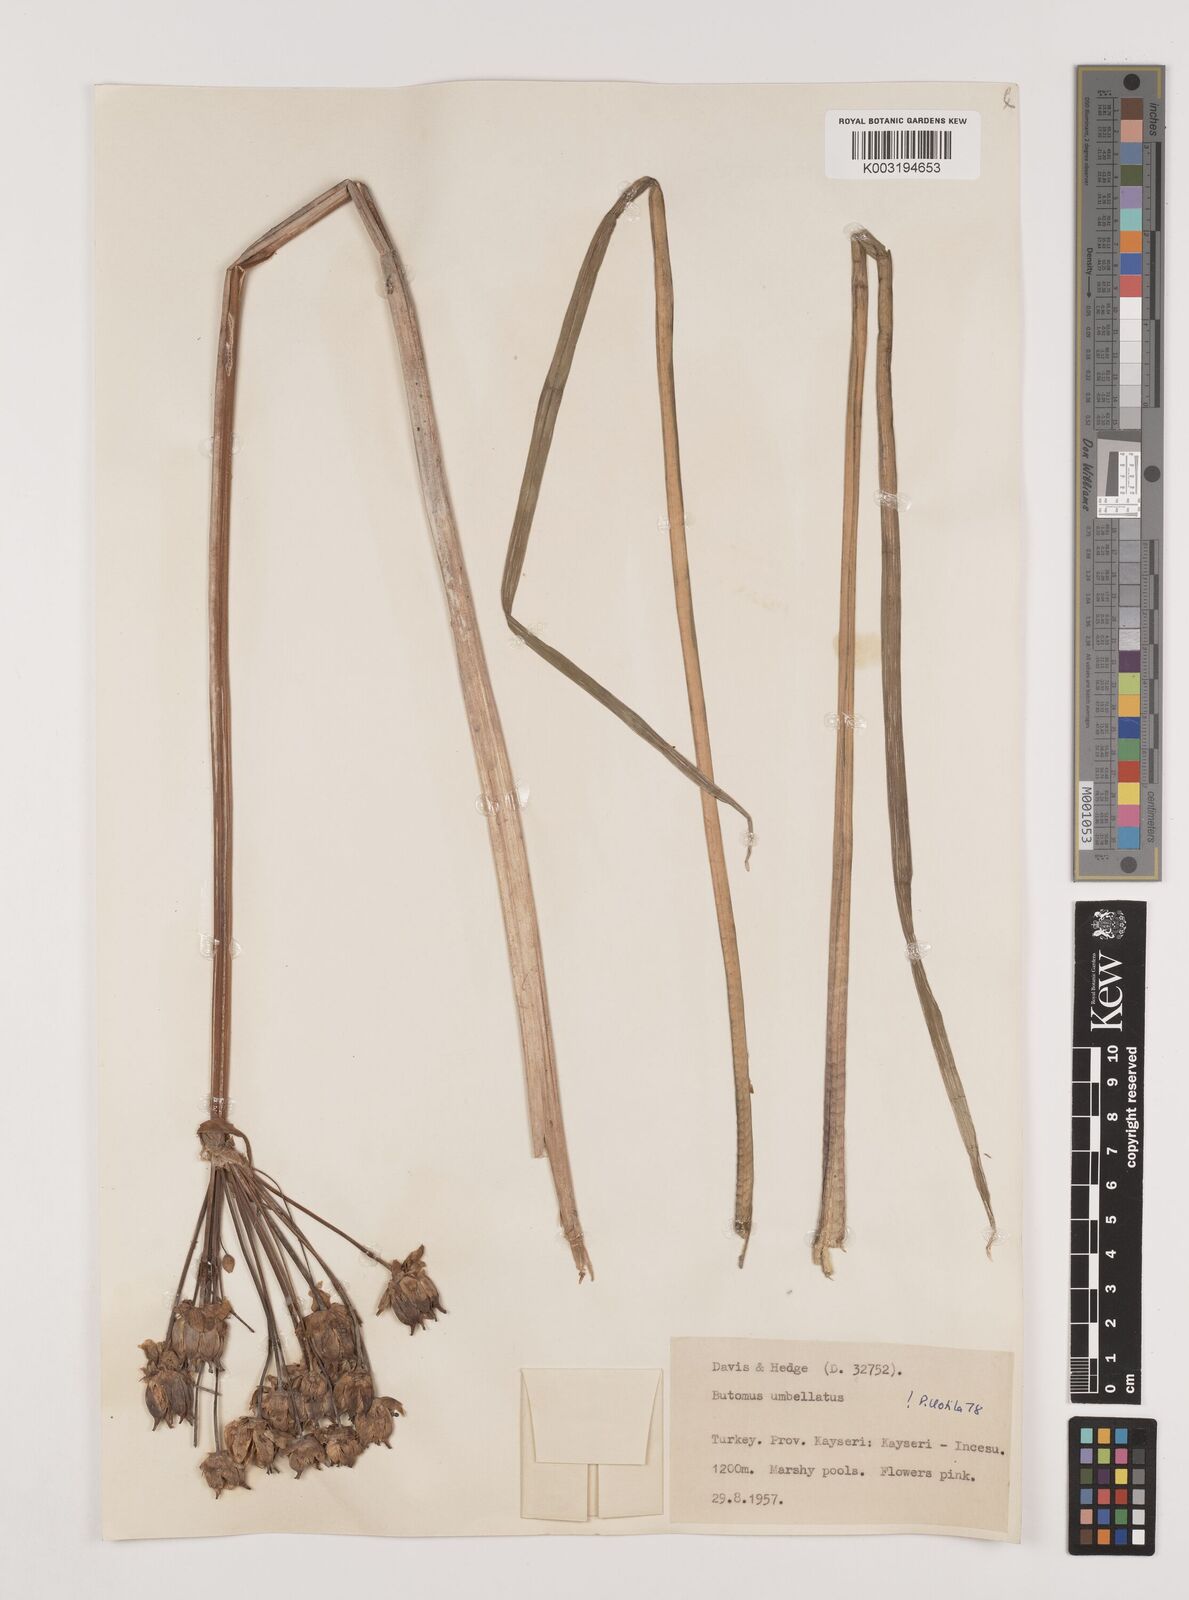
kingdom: Plantae
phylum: Tracheophyta
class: Liliopsida
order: Alismatales
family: Butomaceae
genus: Butomus
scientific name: Butomus
